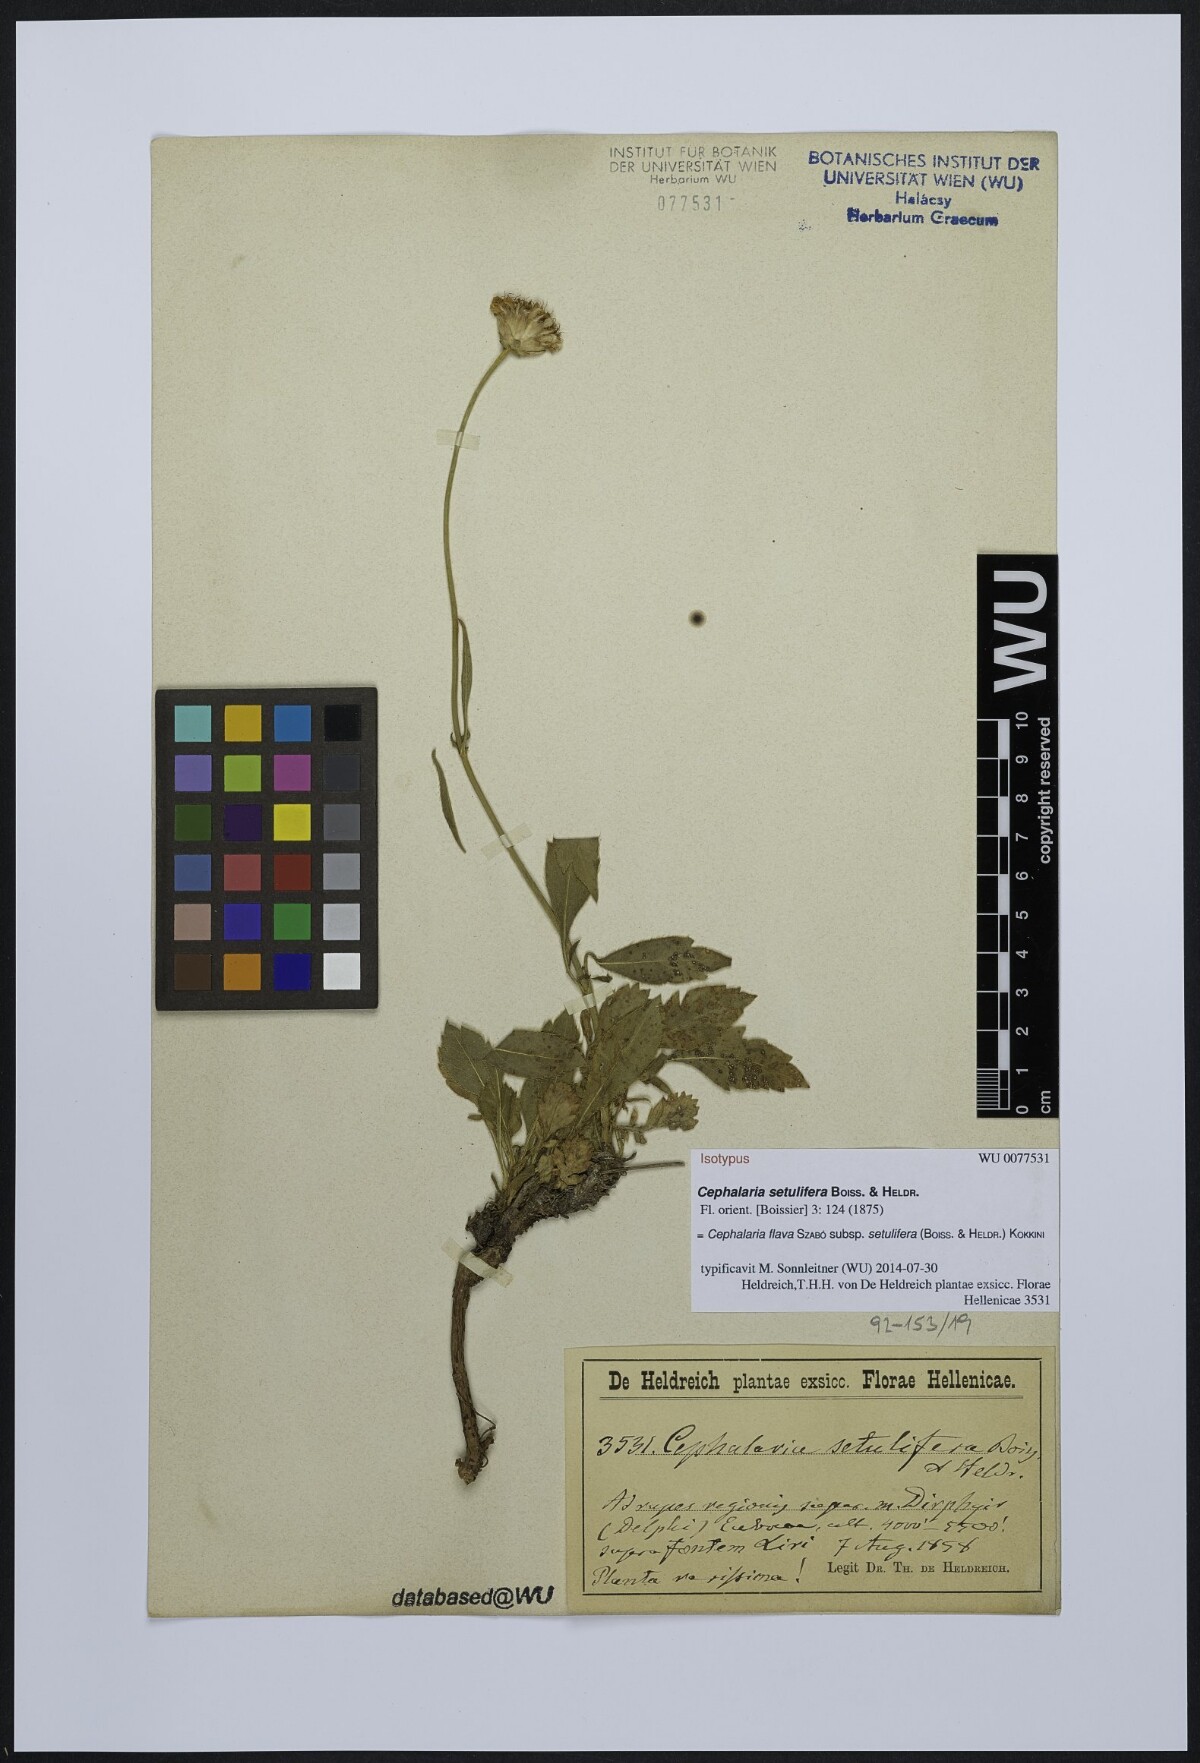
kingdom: Plantae
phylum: Tracheophyta
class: Magnoliopsida
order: Dipsacales
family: Caprifoliaceae
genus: Cephalaria
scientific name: Cephalaria flava
